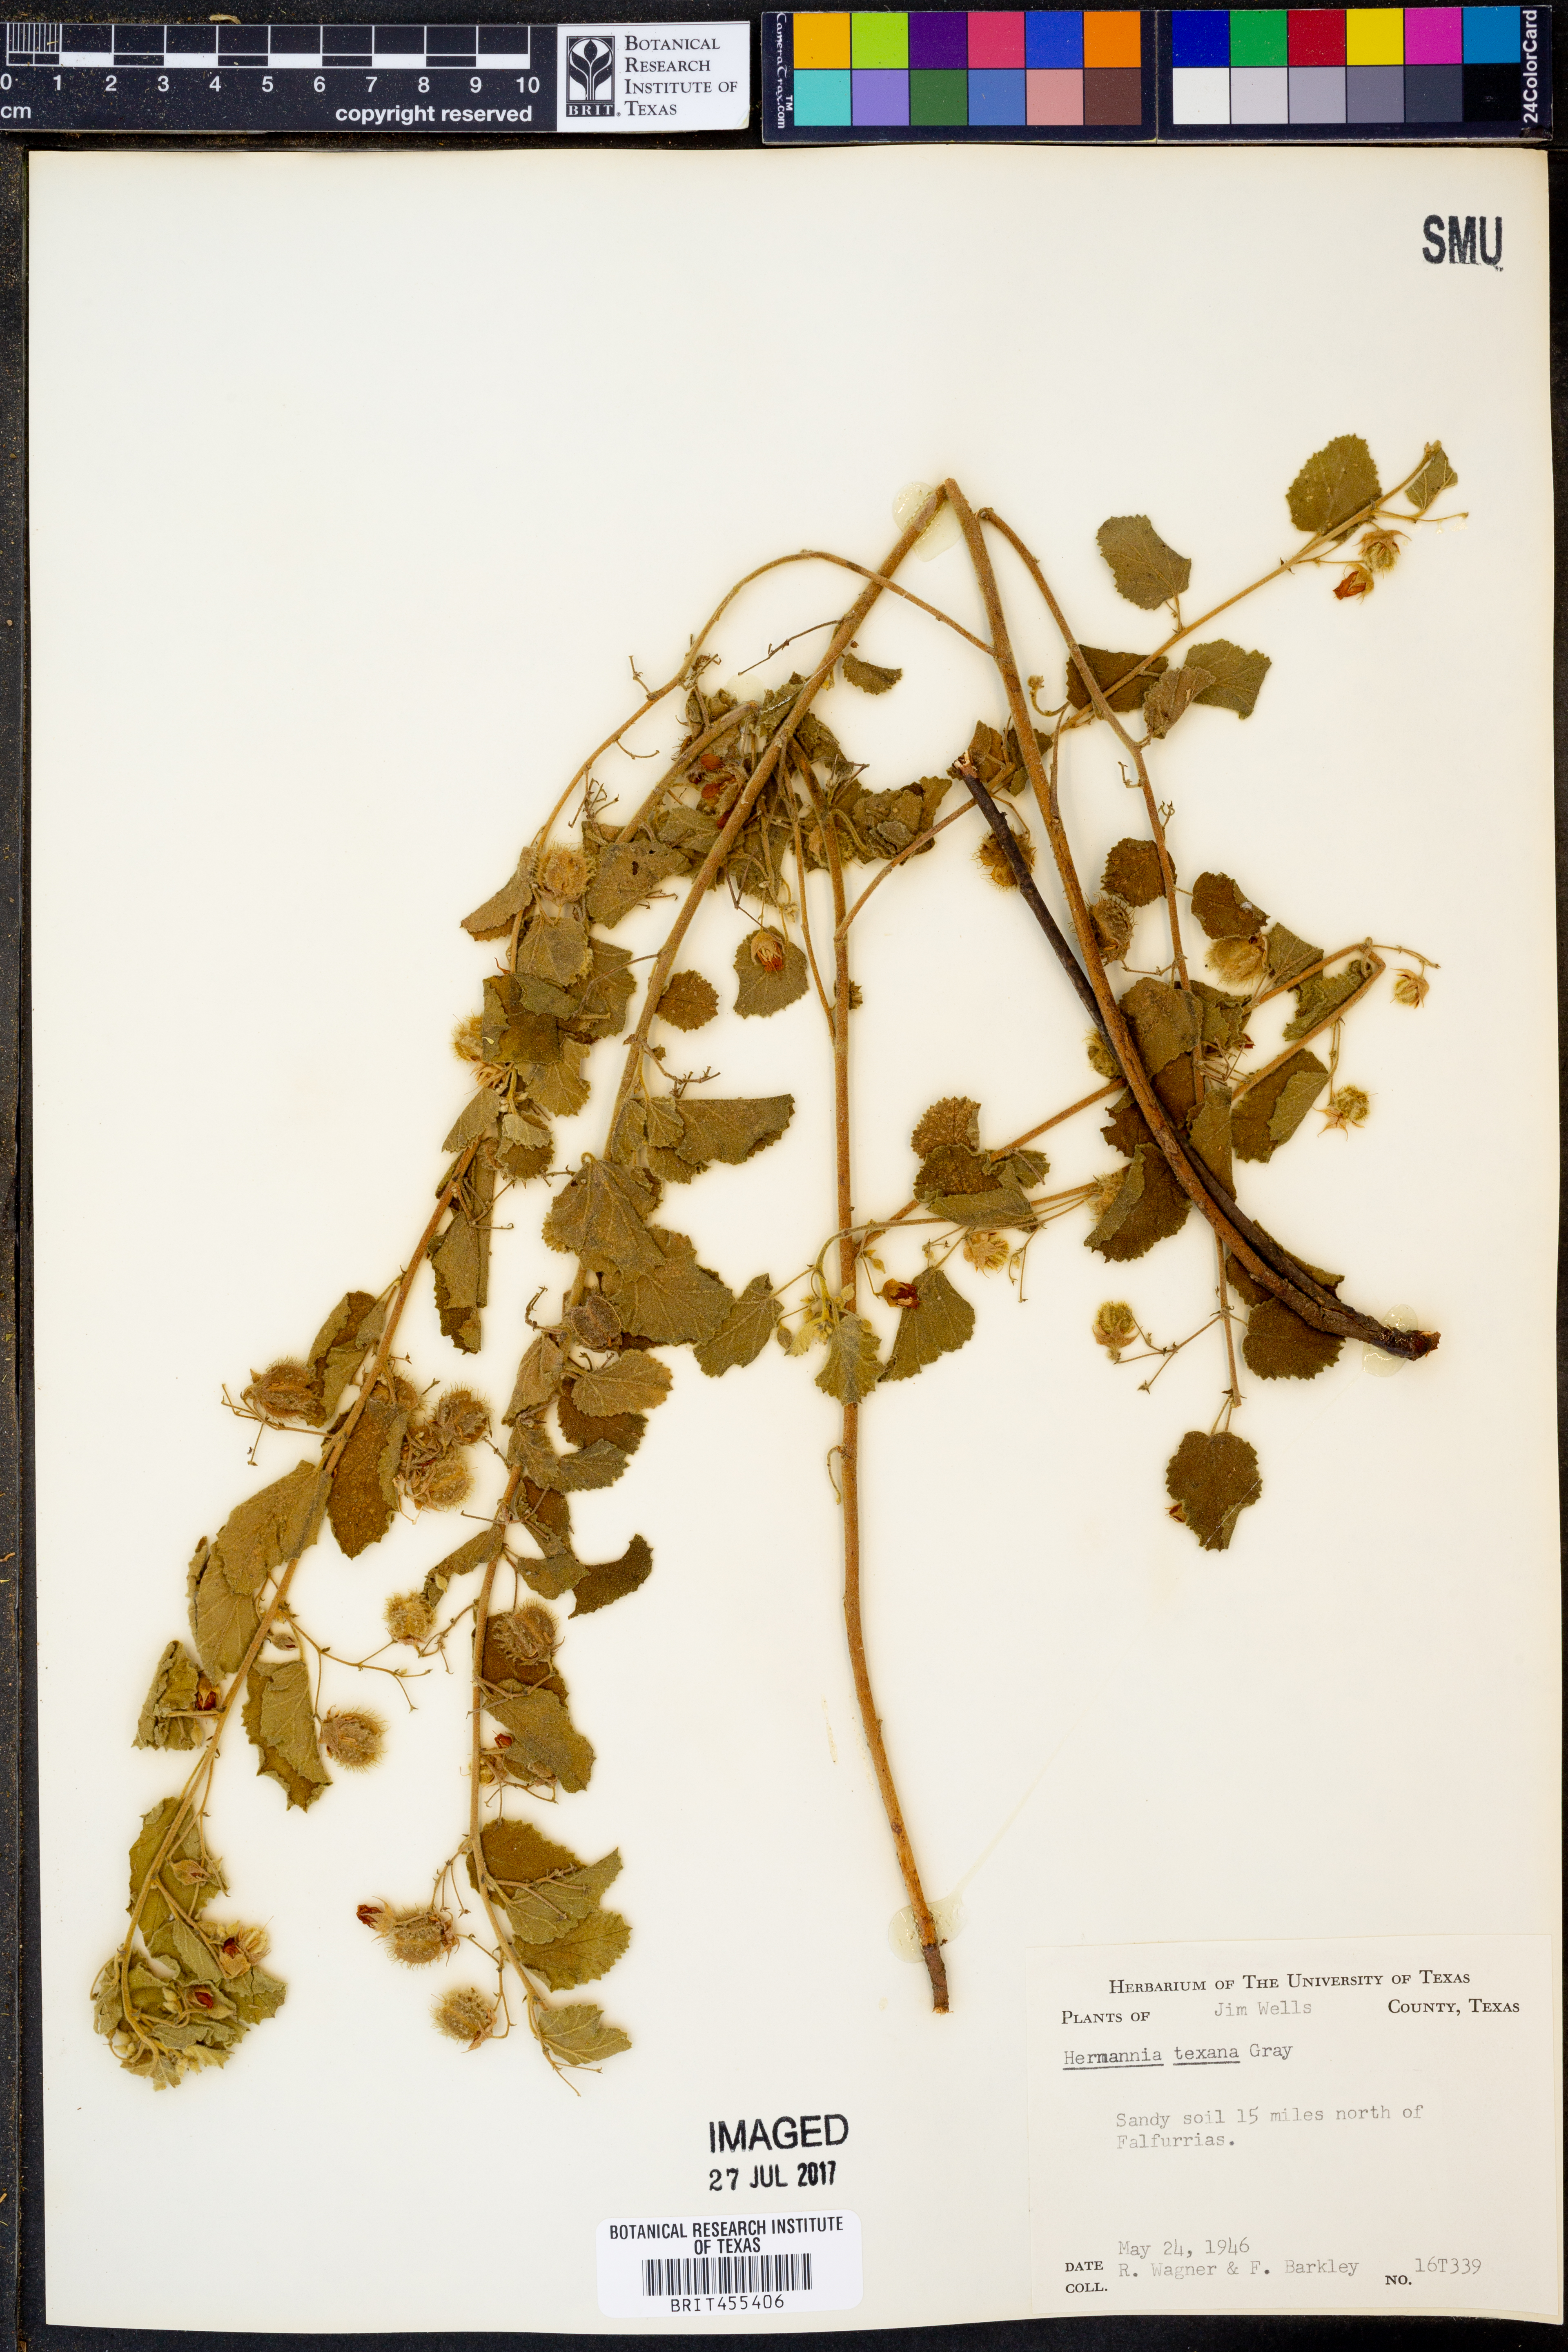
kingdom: Plantae
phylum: Tracheophyta
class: Magnoliopsida
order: Malvales
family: Malvaceae
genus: Hermannia
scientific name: Hermannia texana
